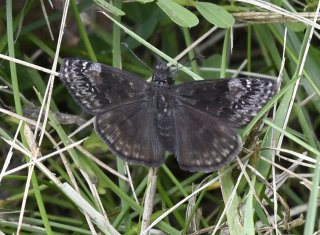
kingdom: Animalia
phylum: Arthropoda
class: Insecta
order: Lepidoptera
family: Hesperiidae
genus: Gesta
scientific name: Gesta
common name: Wild Indigo Duskywing
